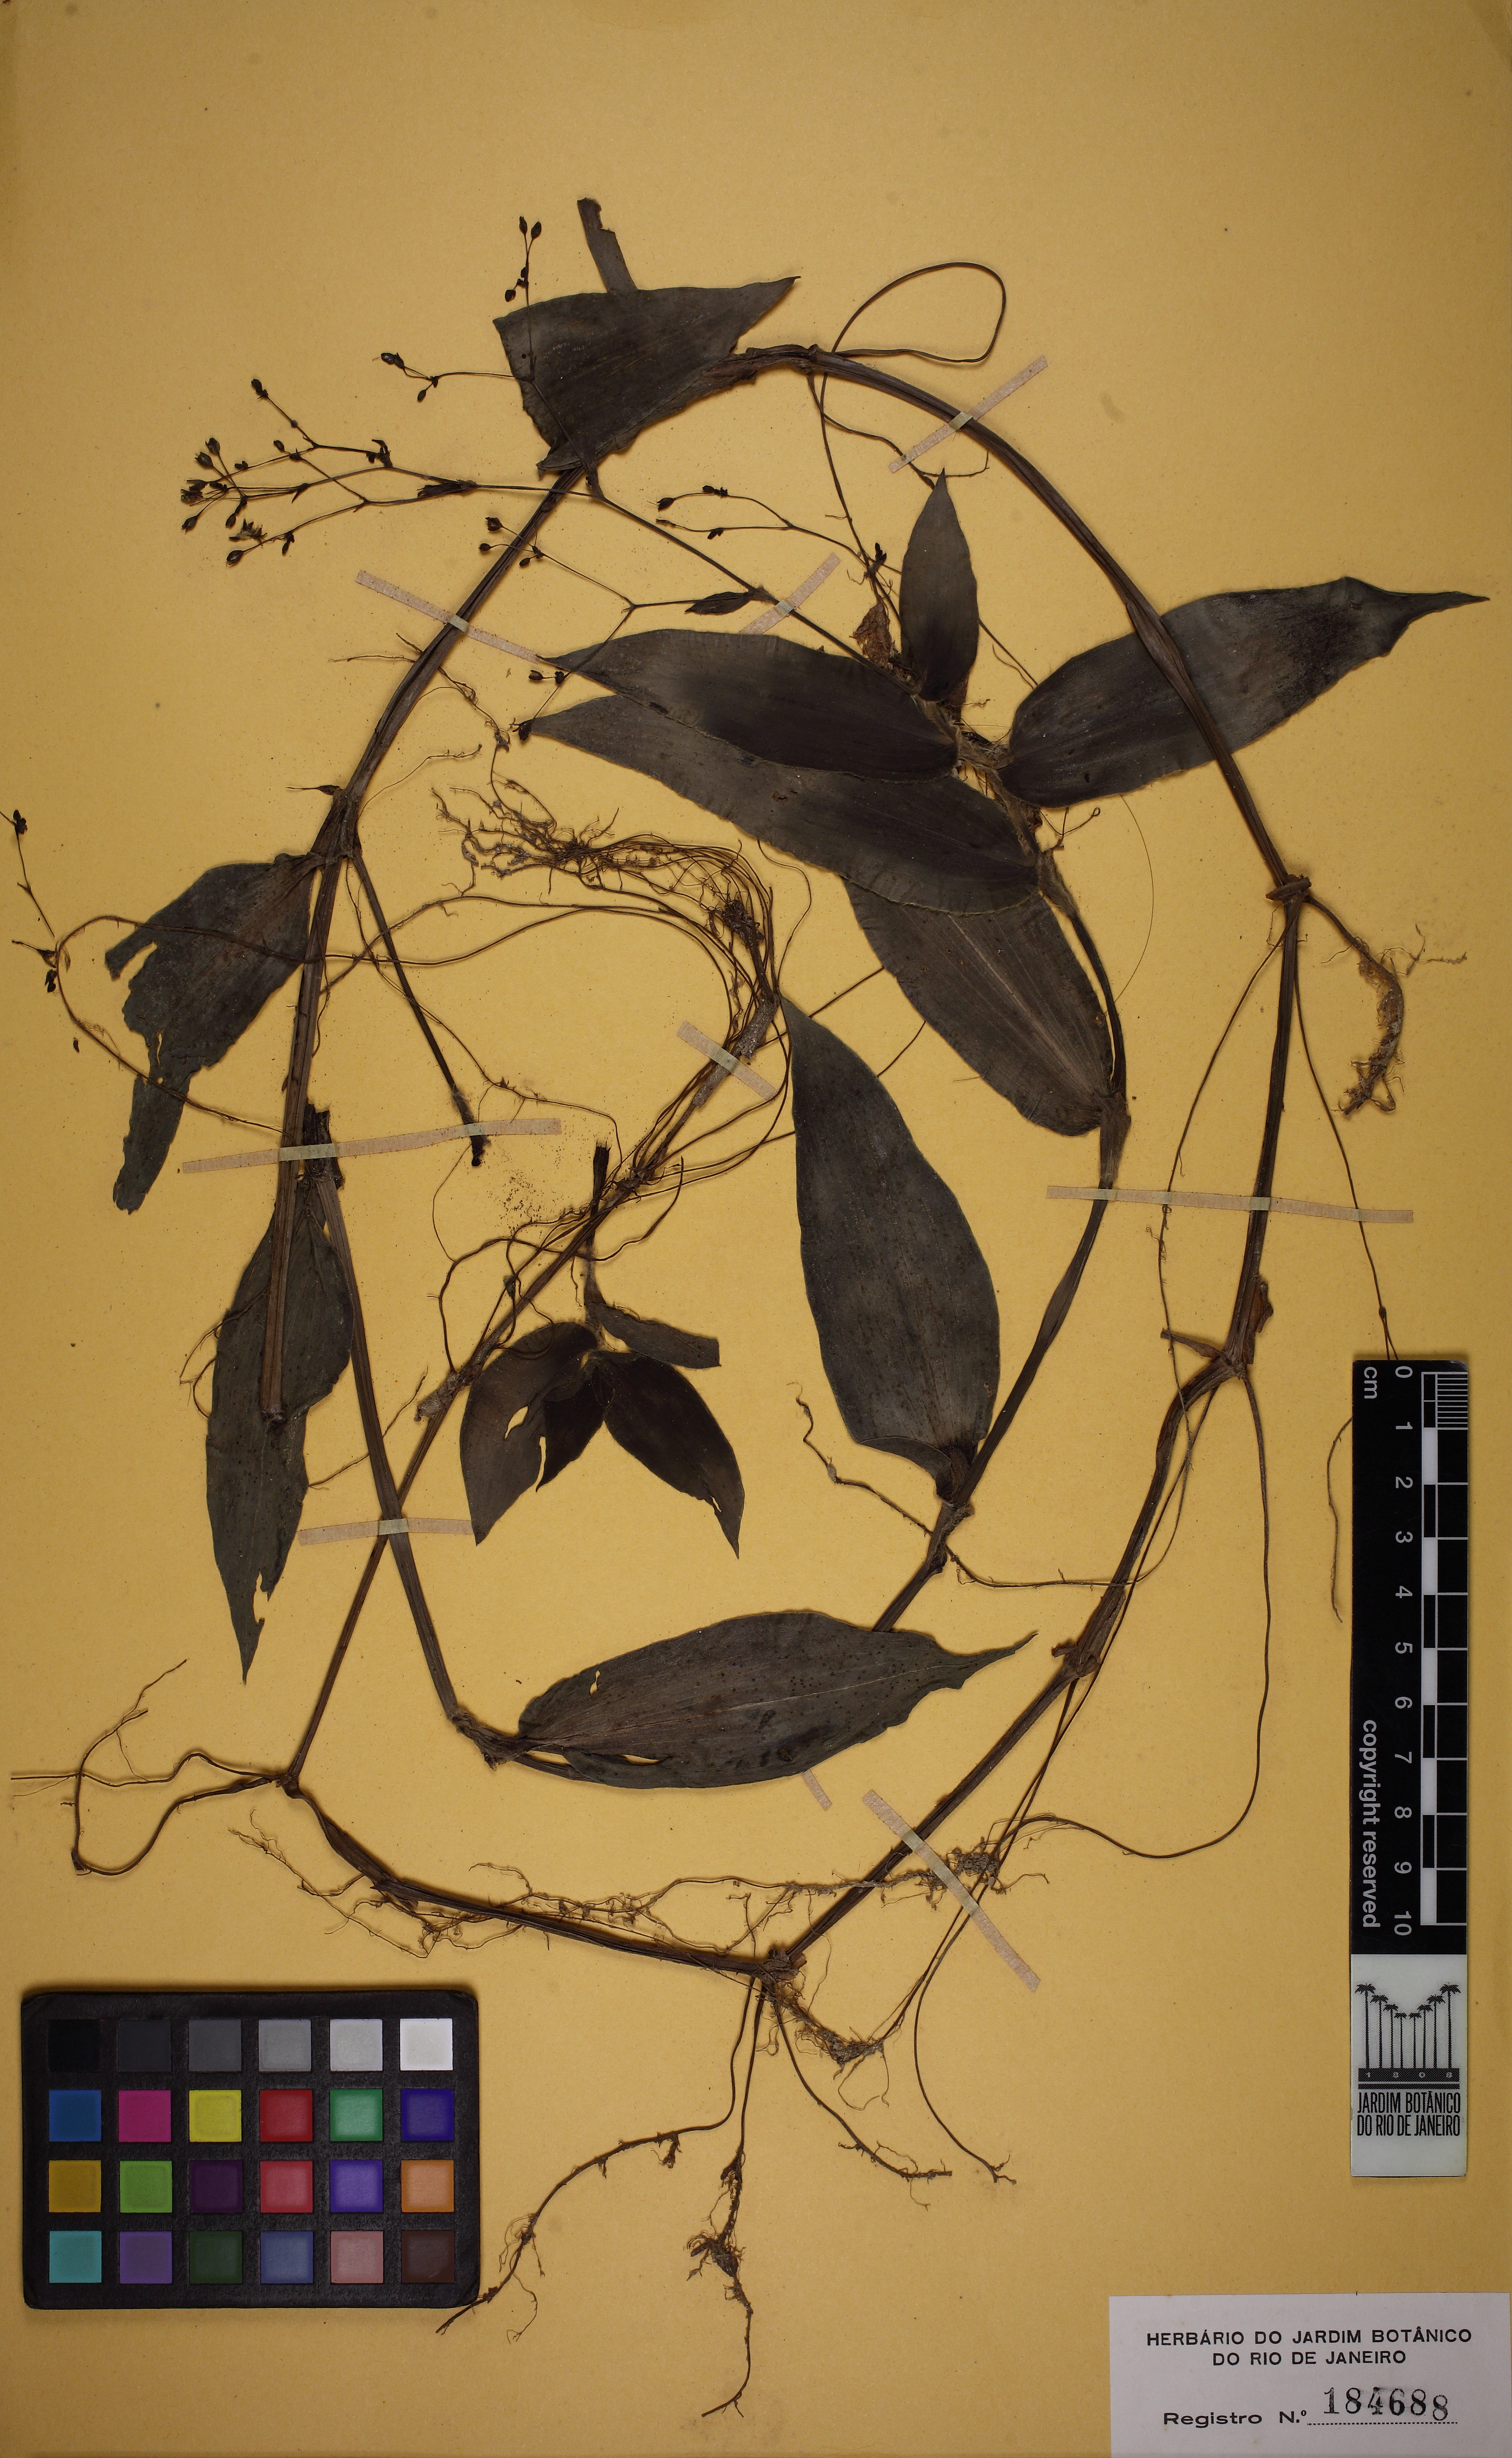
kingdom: Plantae
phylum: Tracheophyta
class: Liliopsida
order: Commelinales
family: Commelinaceae
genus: Gibasis
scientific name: Gibasis geniculata
